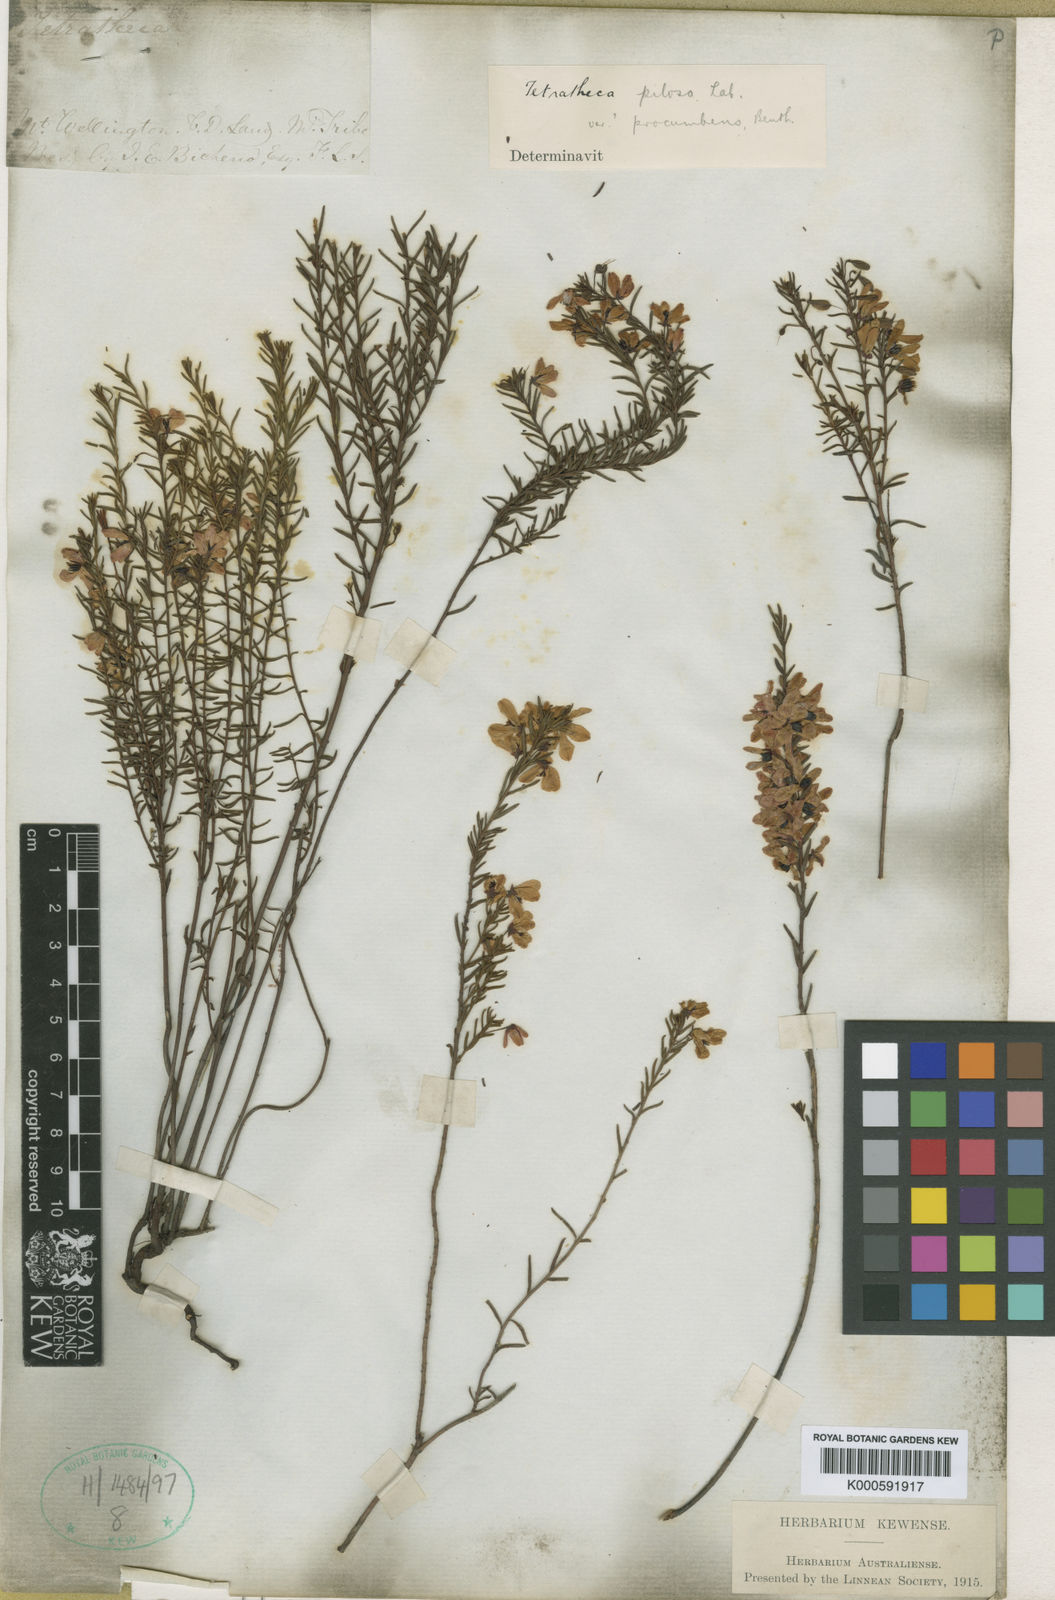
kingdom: Plantae
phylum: Tracheophyta
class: Magnoliopsida
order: Oxalidales
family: Elaeocarpaceae
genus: Tetratheca
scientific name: Tetratheca pilosa
